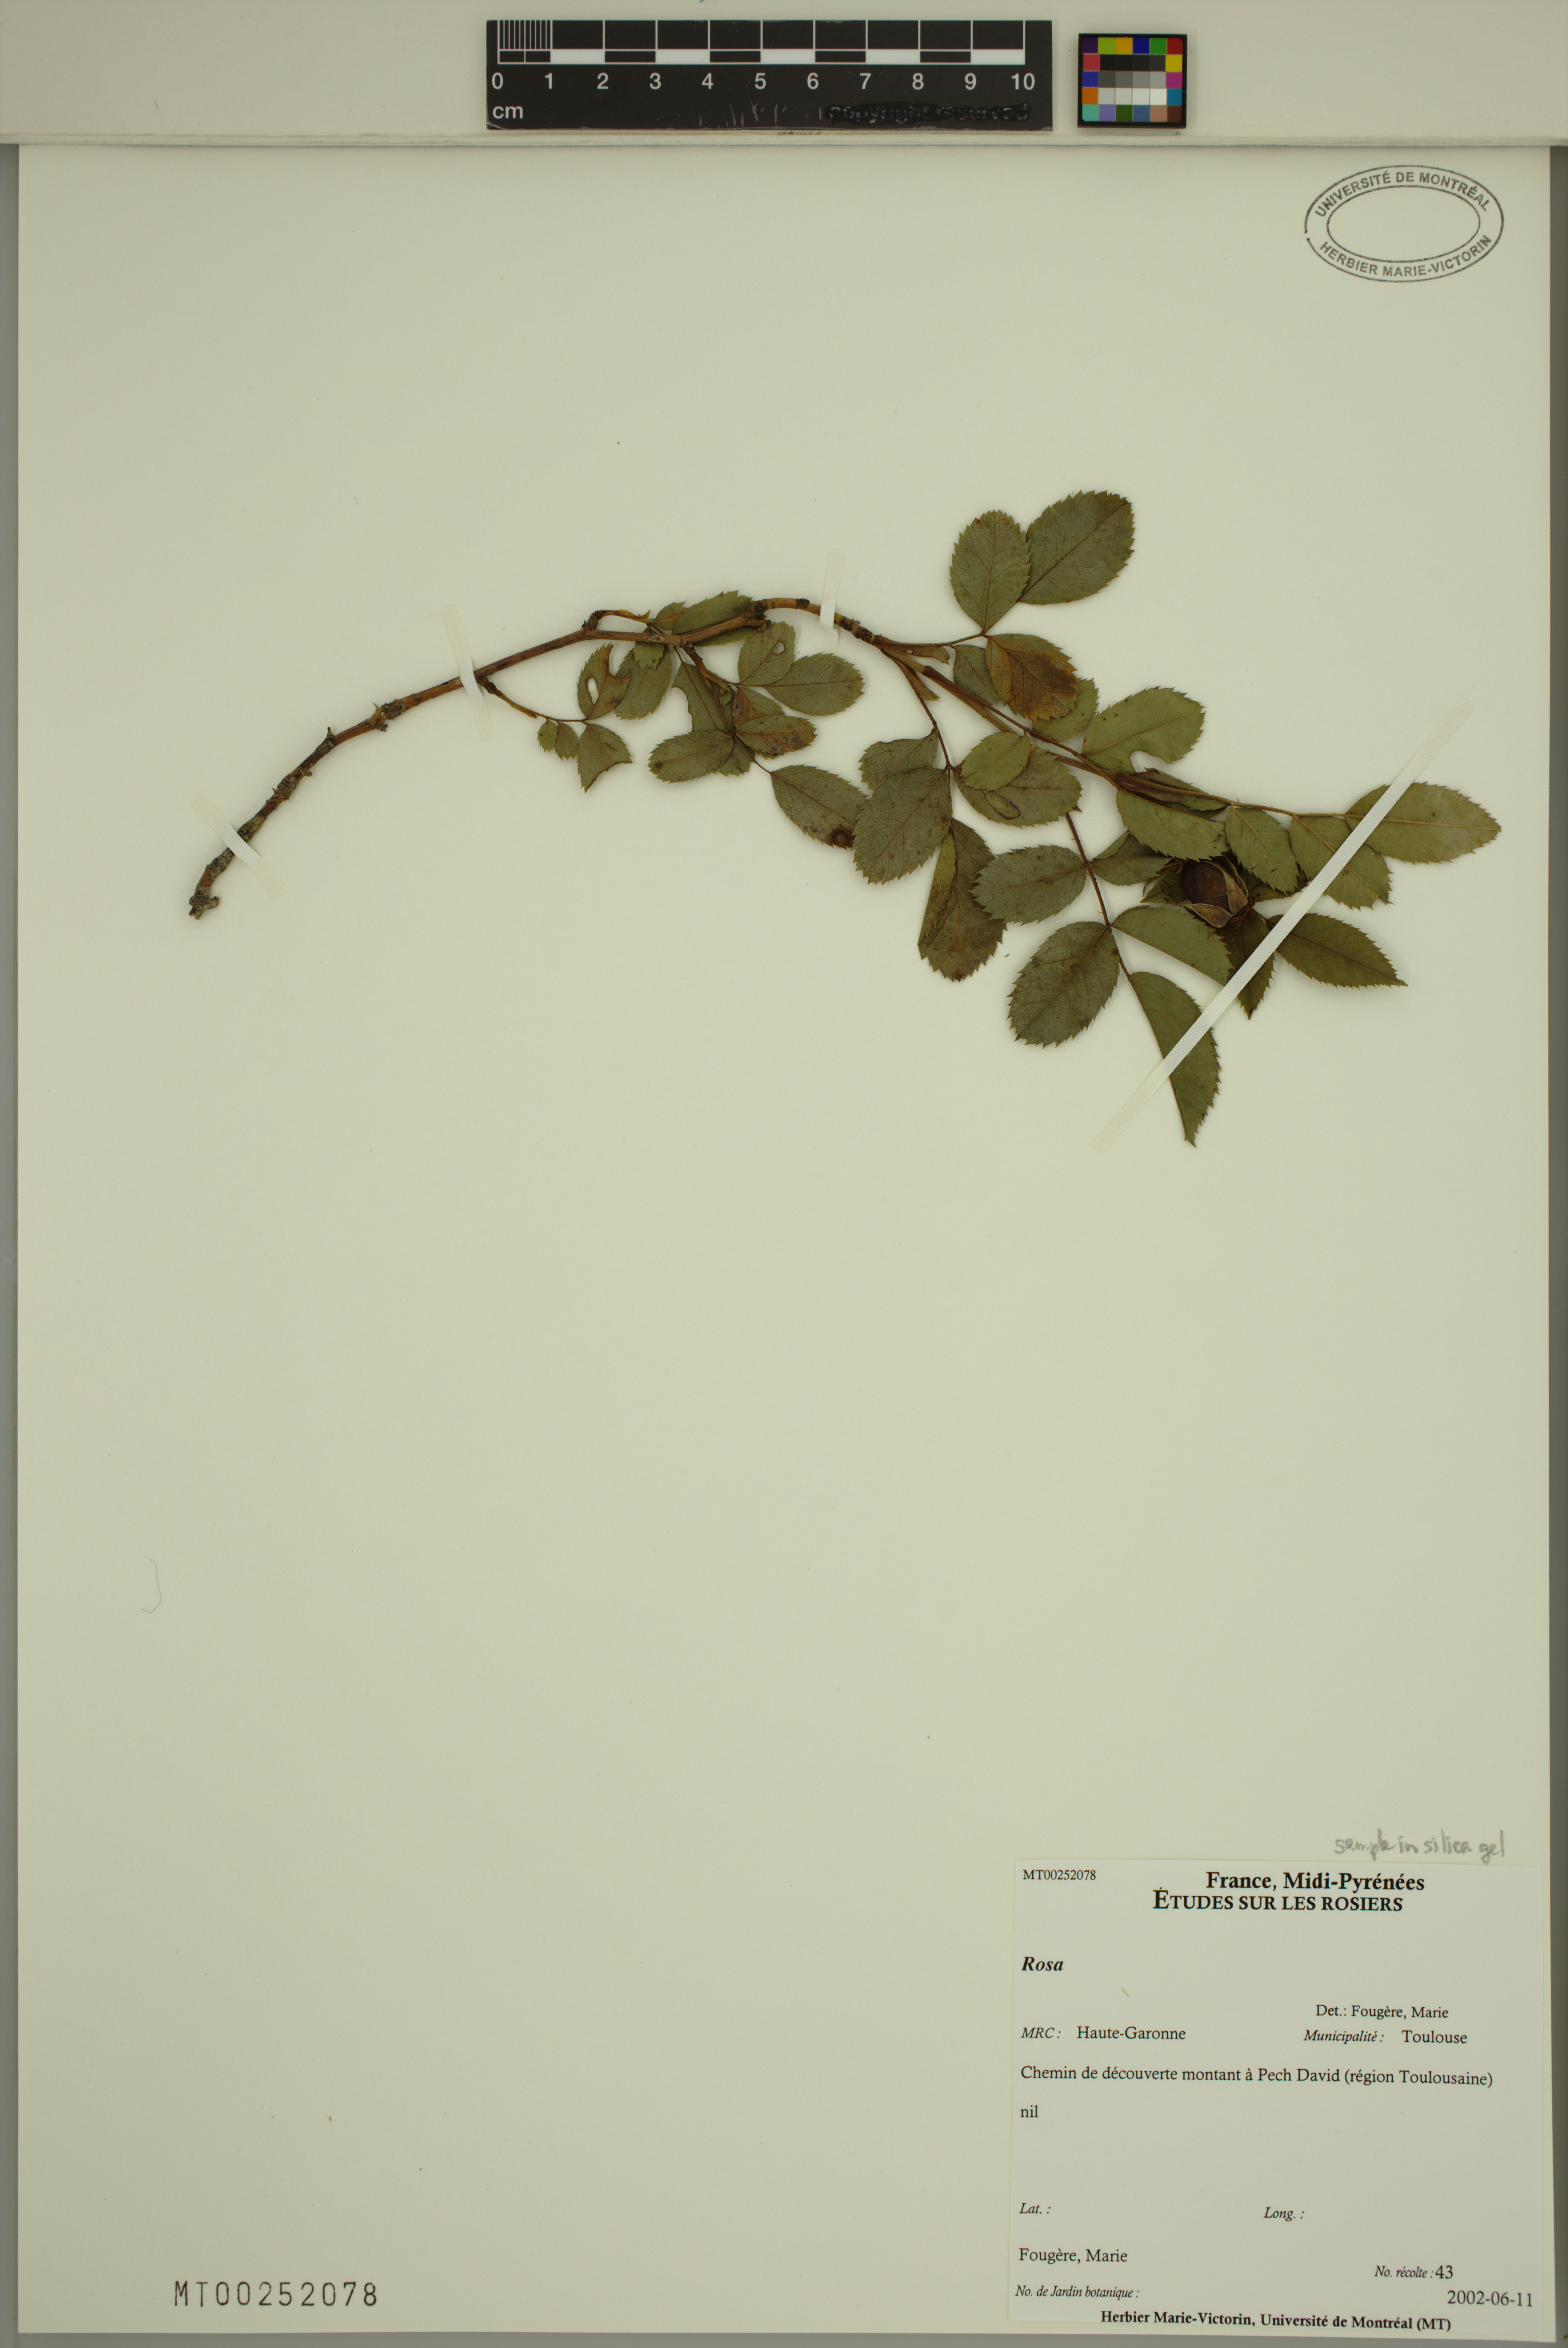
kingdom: Plantae
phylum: Tracheophyta
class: Magnoliopsida
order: Rosales
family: Rosaceae
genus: Rosa
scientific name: Rosa
